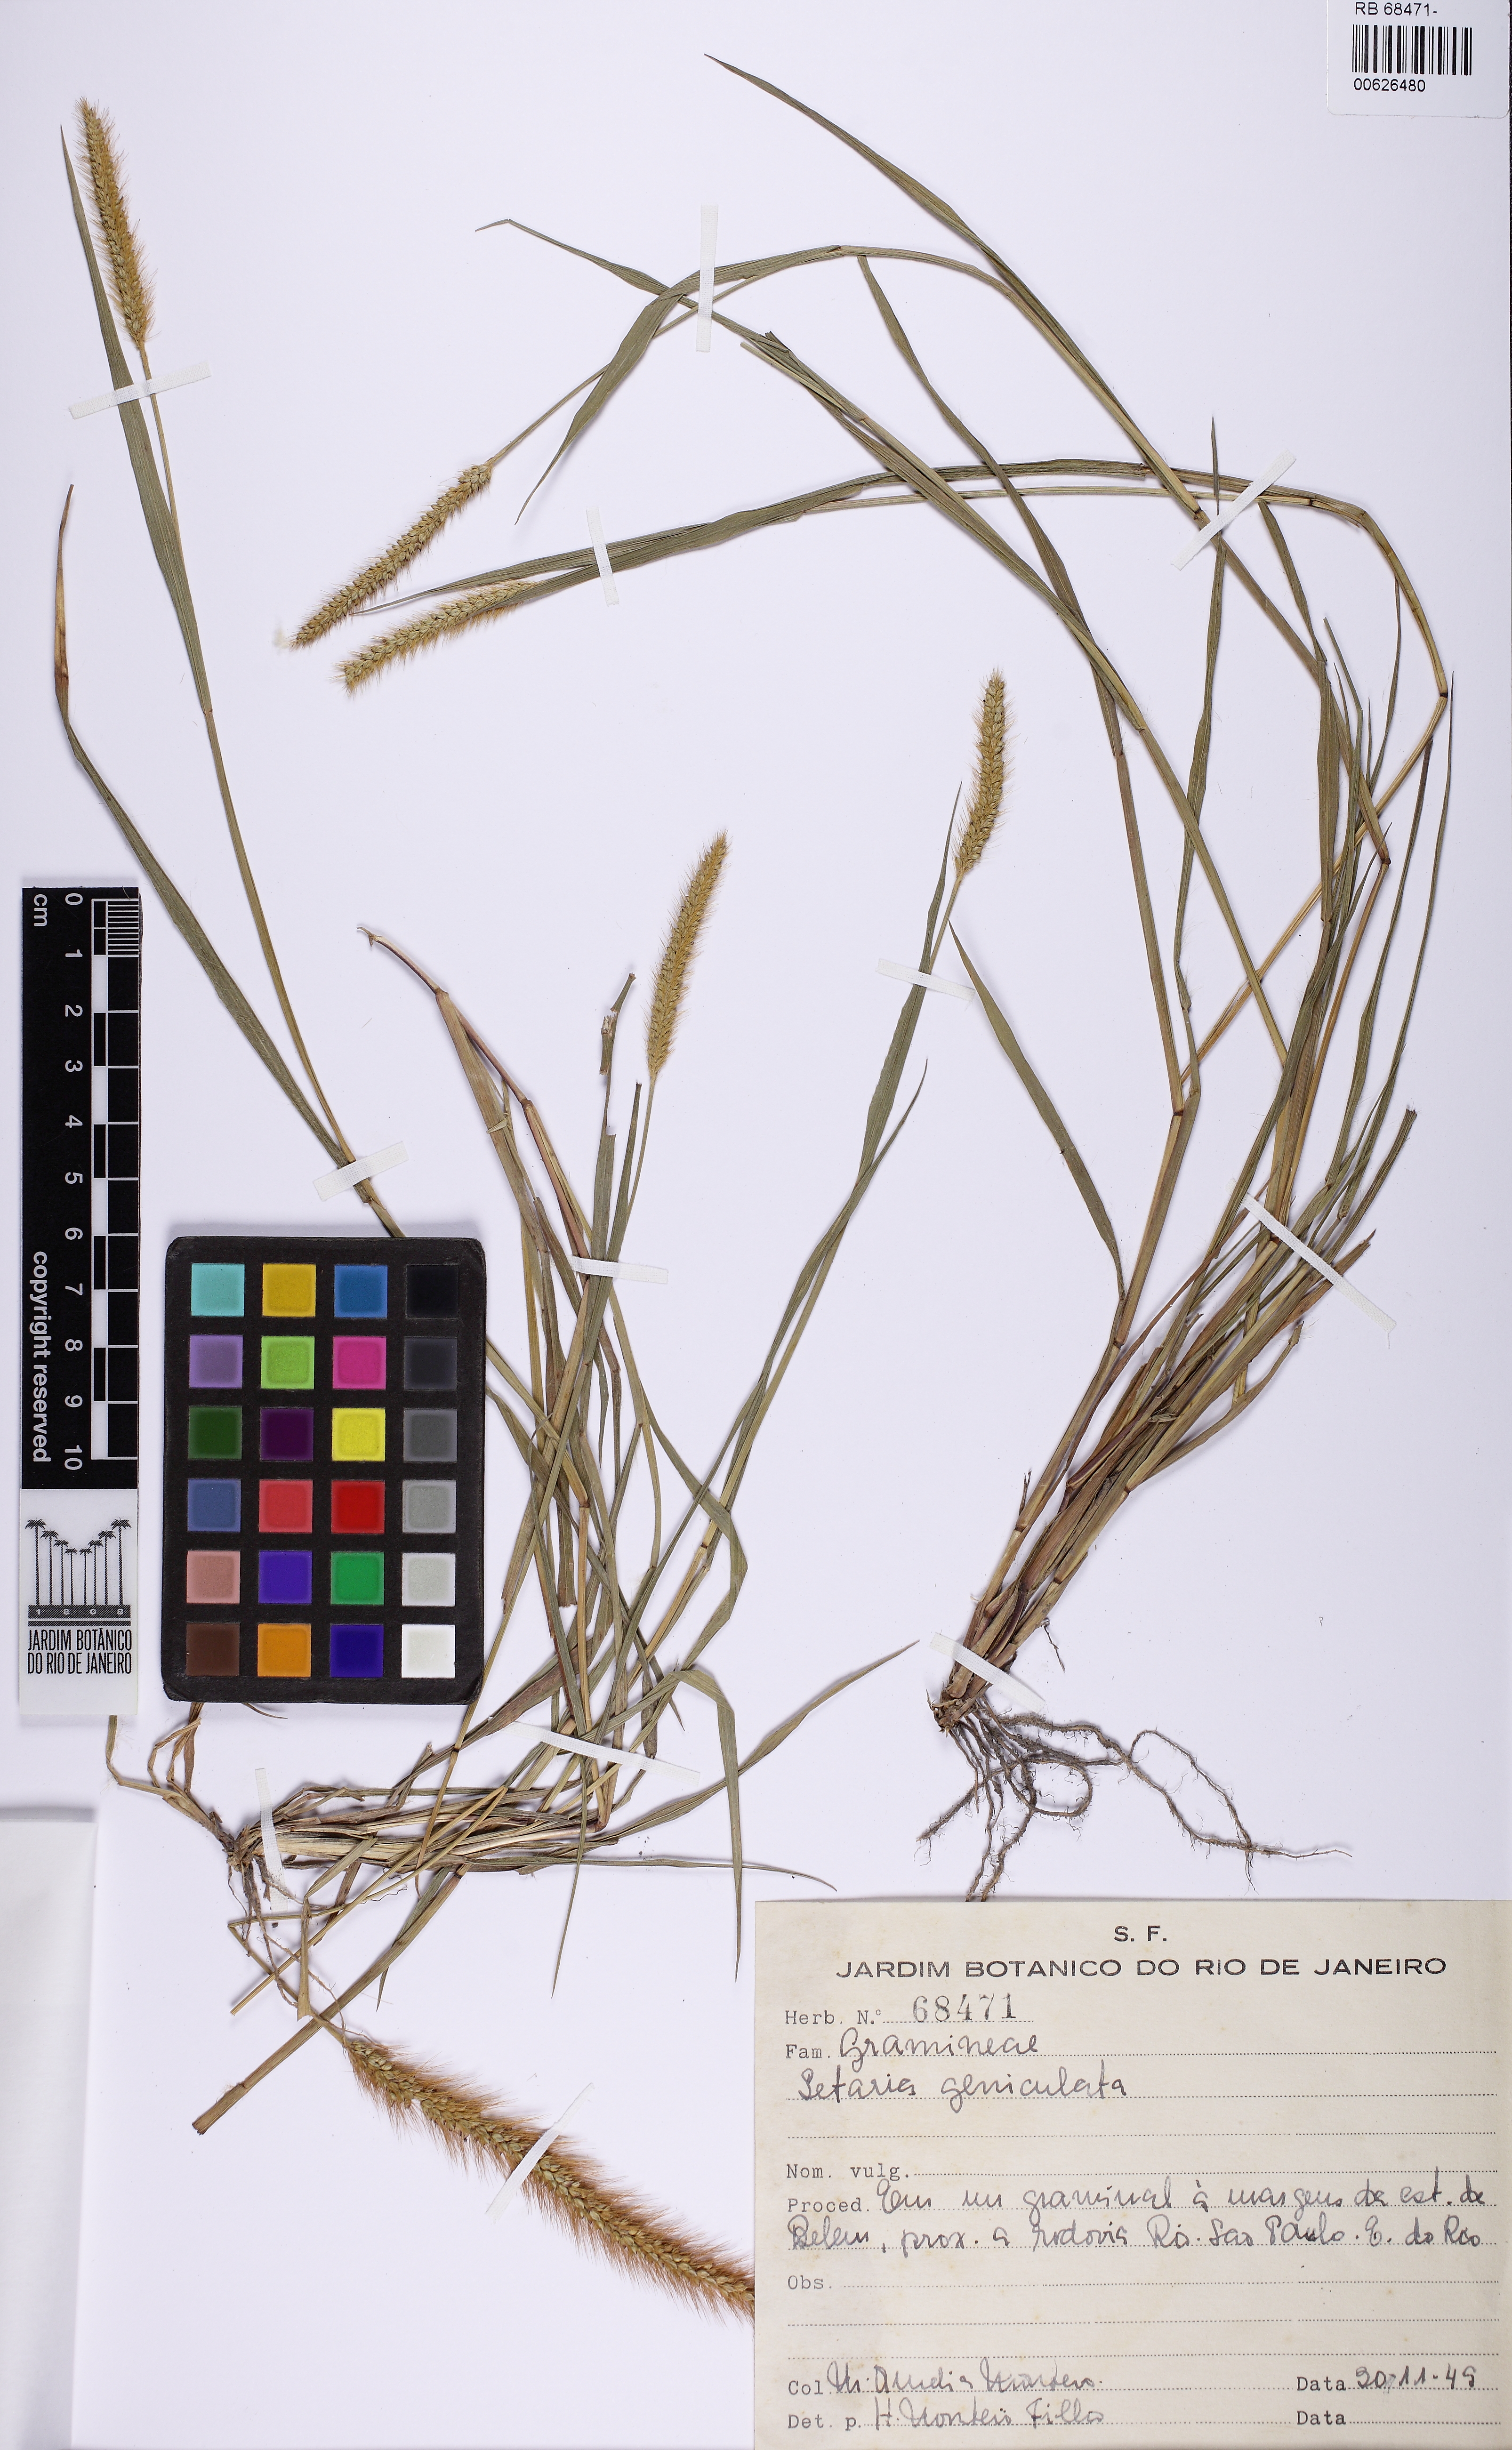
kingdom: Plantae
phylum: Tracheophyta
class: Liliopsida
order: Poales
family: Poaceae
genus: Setaria
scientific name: Setaria parviflora
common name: Knotroot bristle-grass
